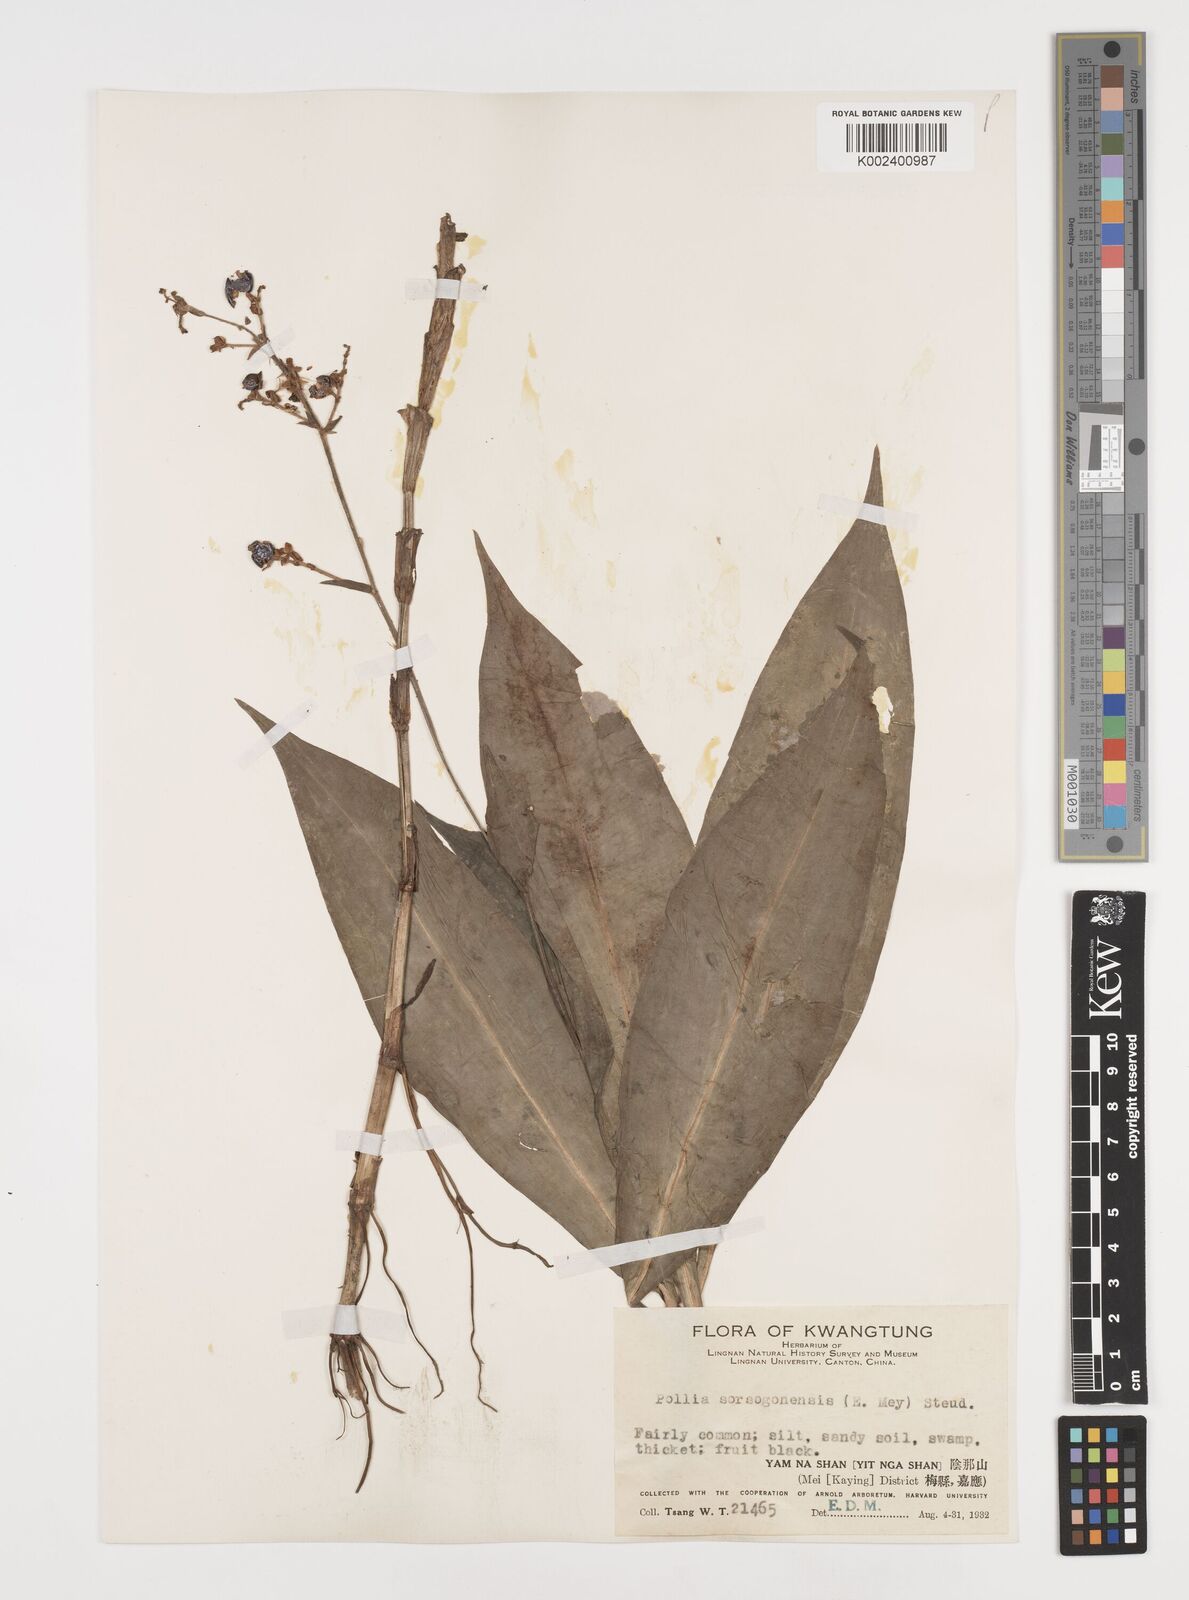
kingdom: Plantae
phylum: Tracheophyta
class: Liliopsida
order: Commelinales
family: Commelinaceae
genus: Pollia
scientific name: Pollia secundiflora
